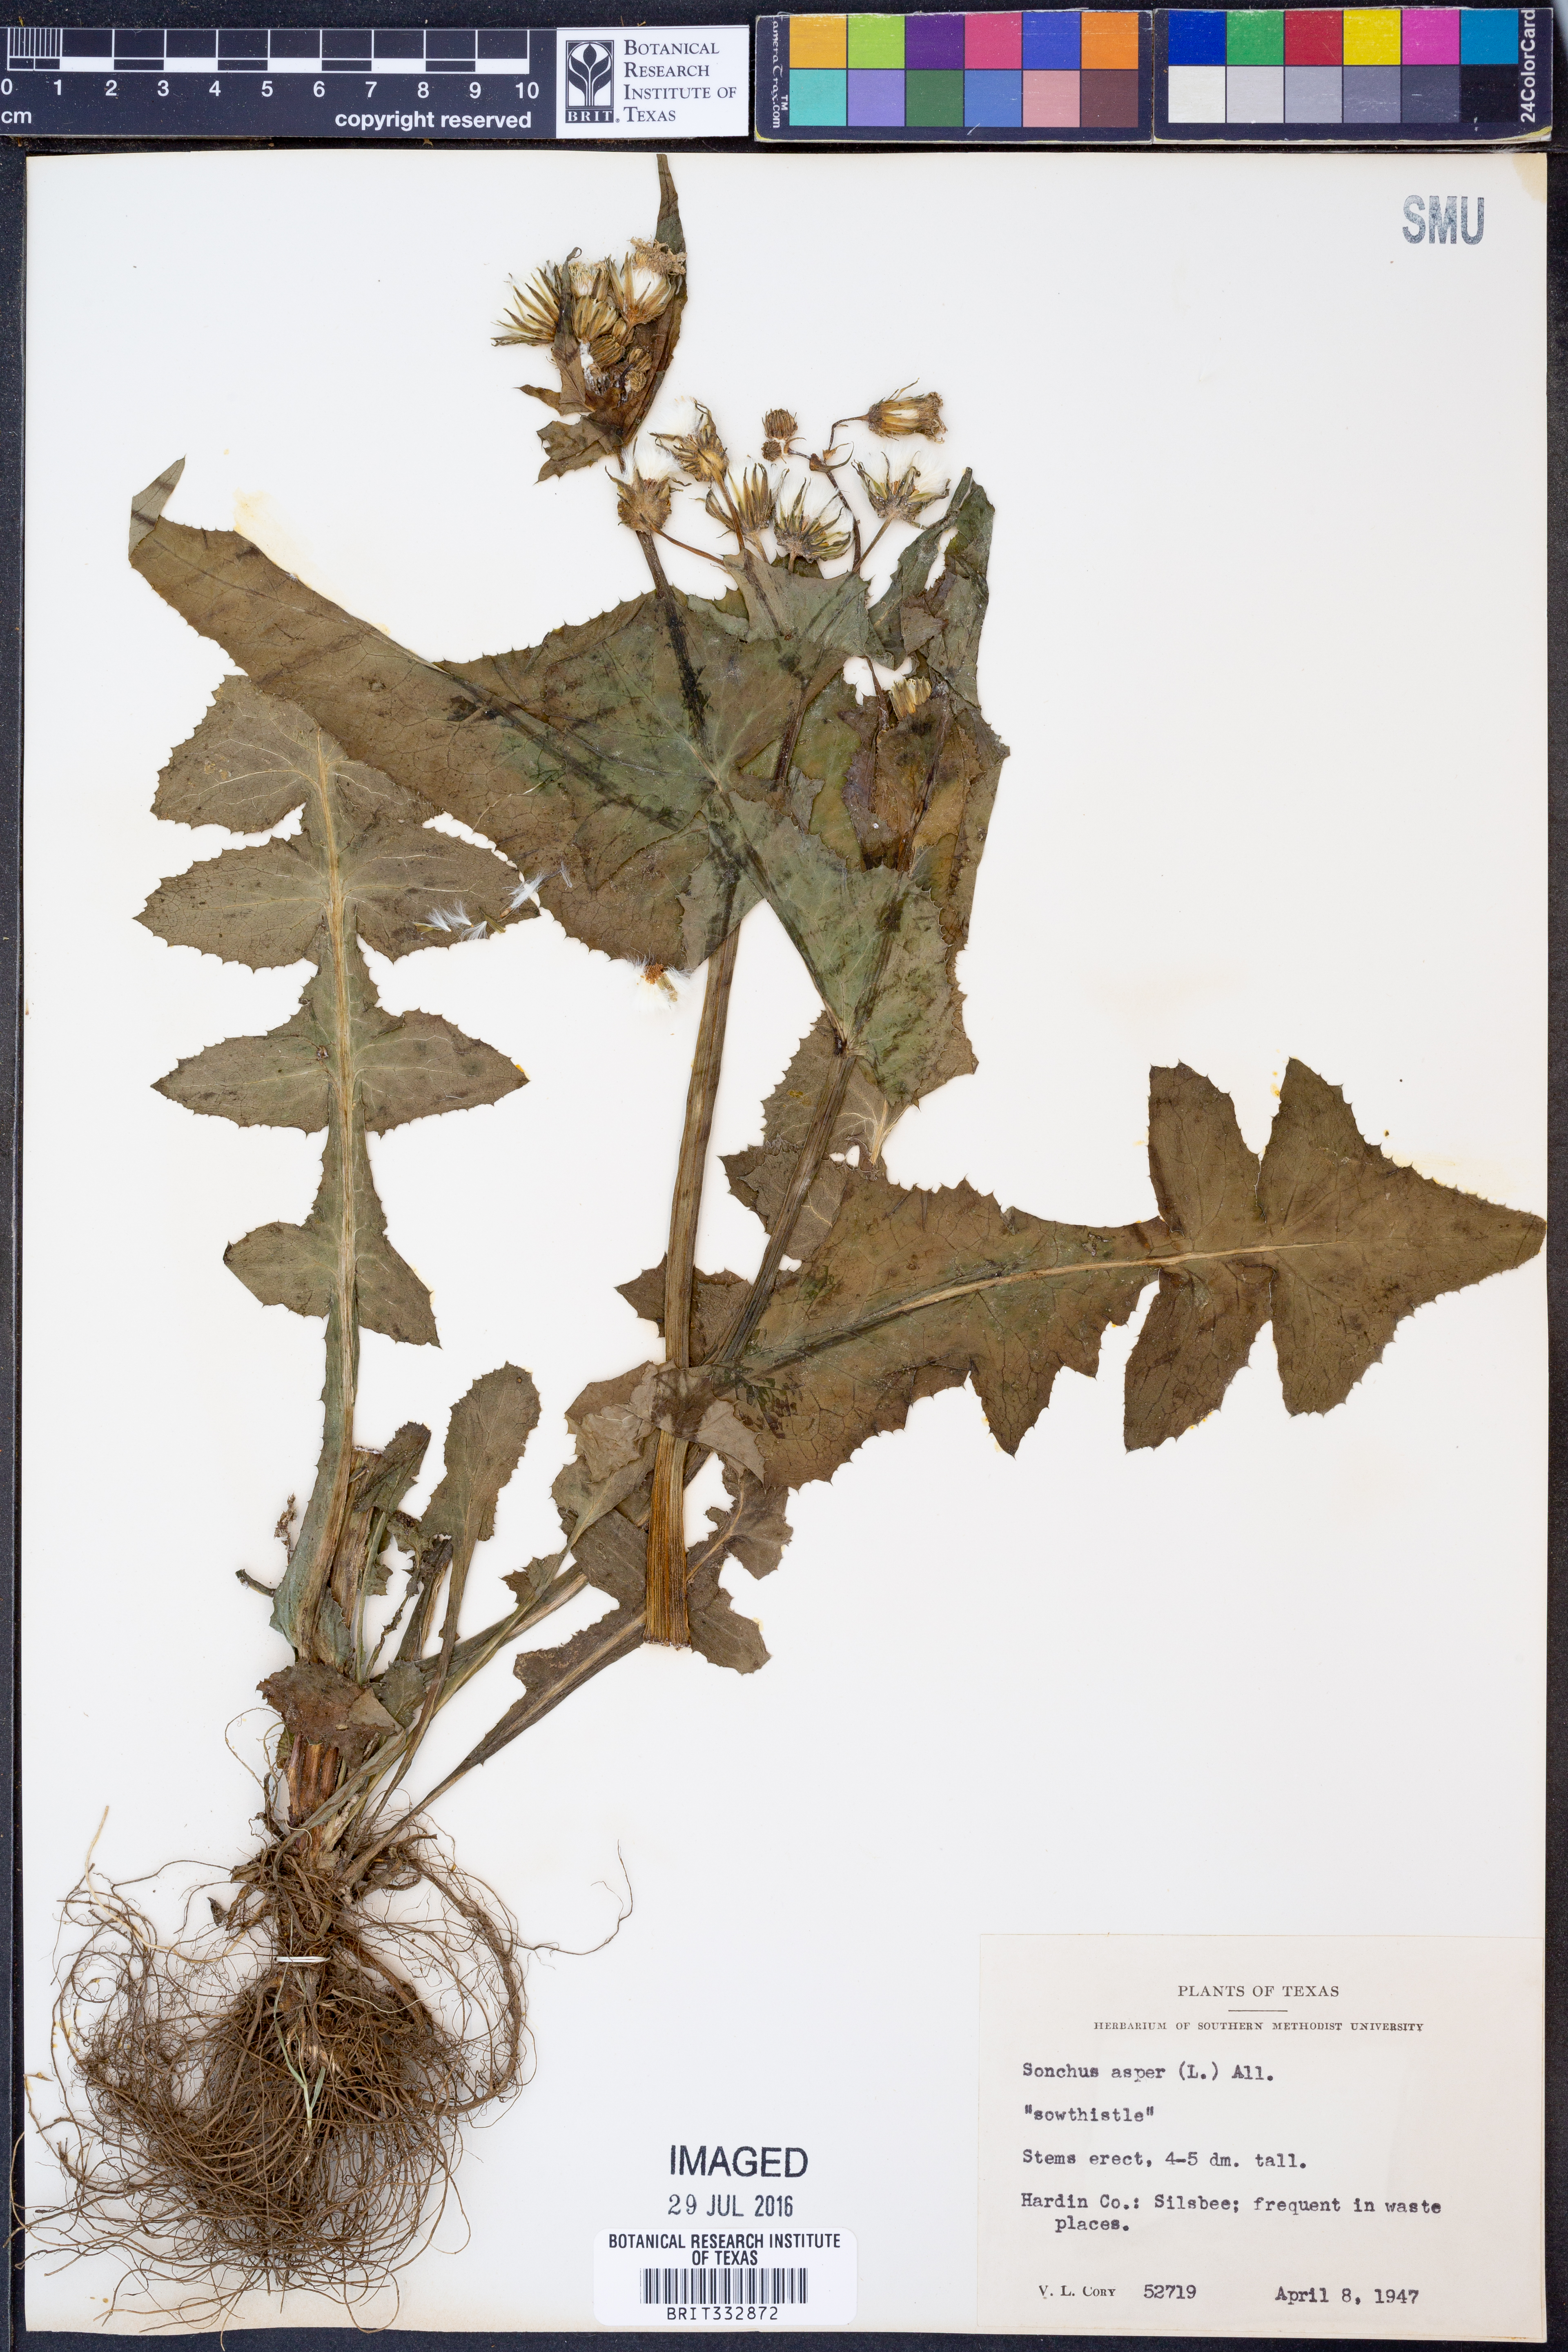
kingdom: Plantae
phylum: Tracheophyta
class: Magnoliopsida
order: Asterales
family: Asteraceae
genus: Sonchus
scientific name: Sonchus asper
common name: Prickly sow-thistle
